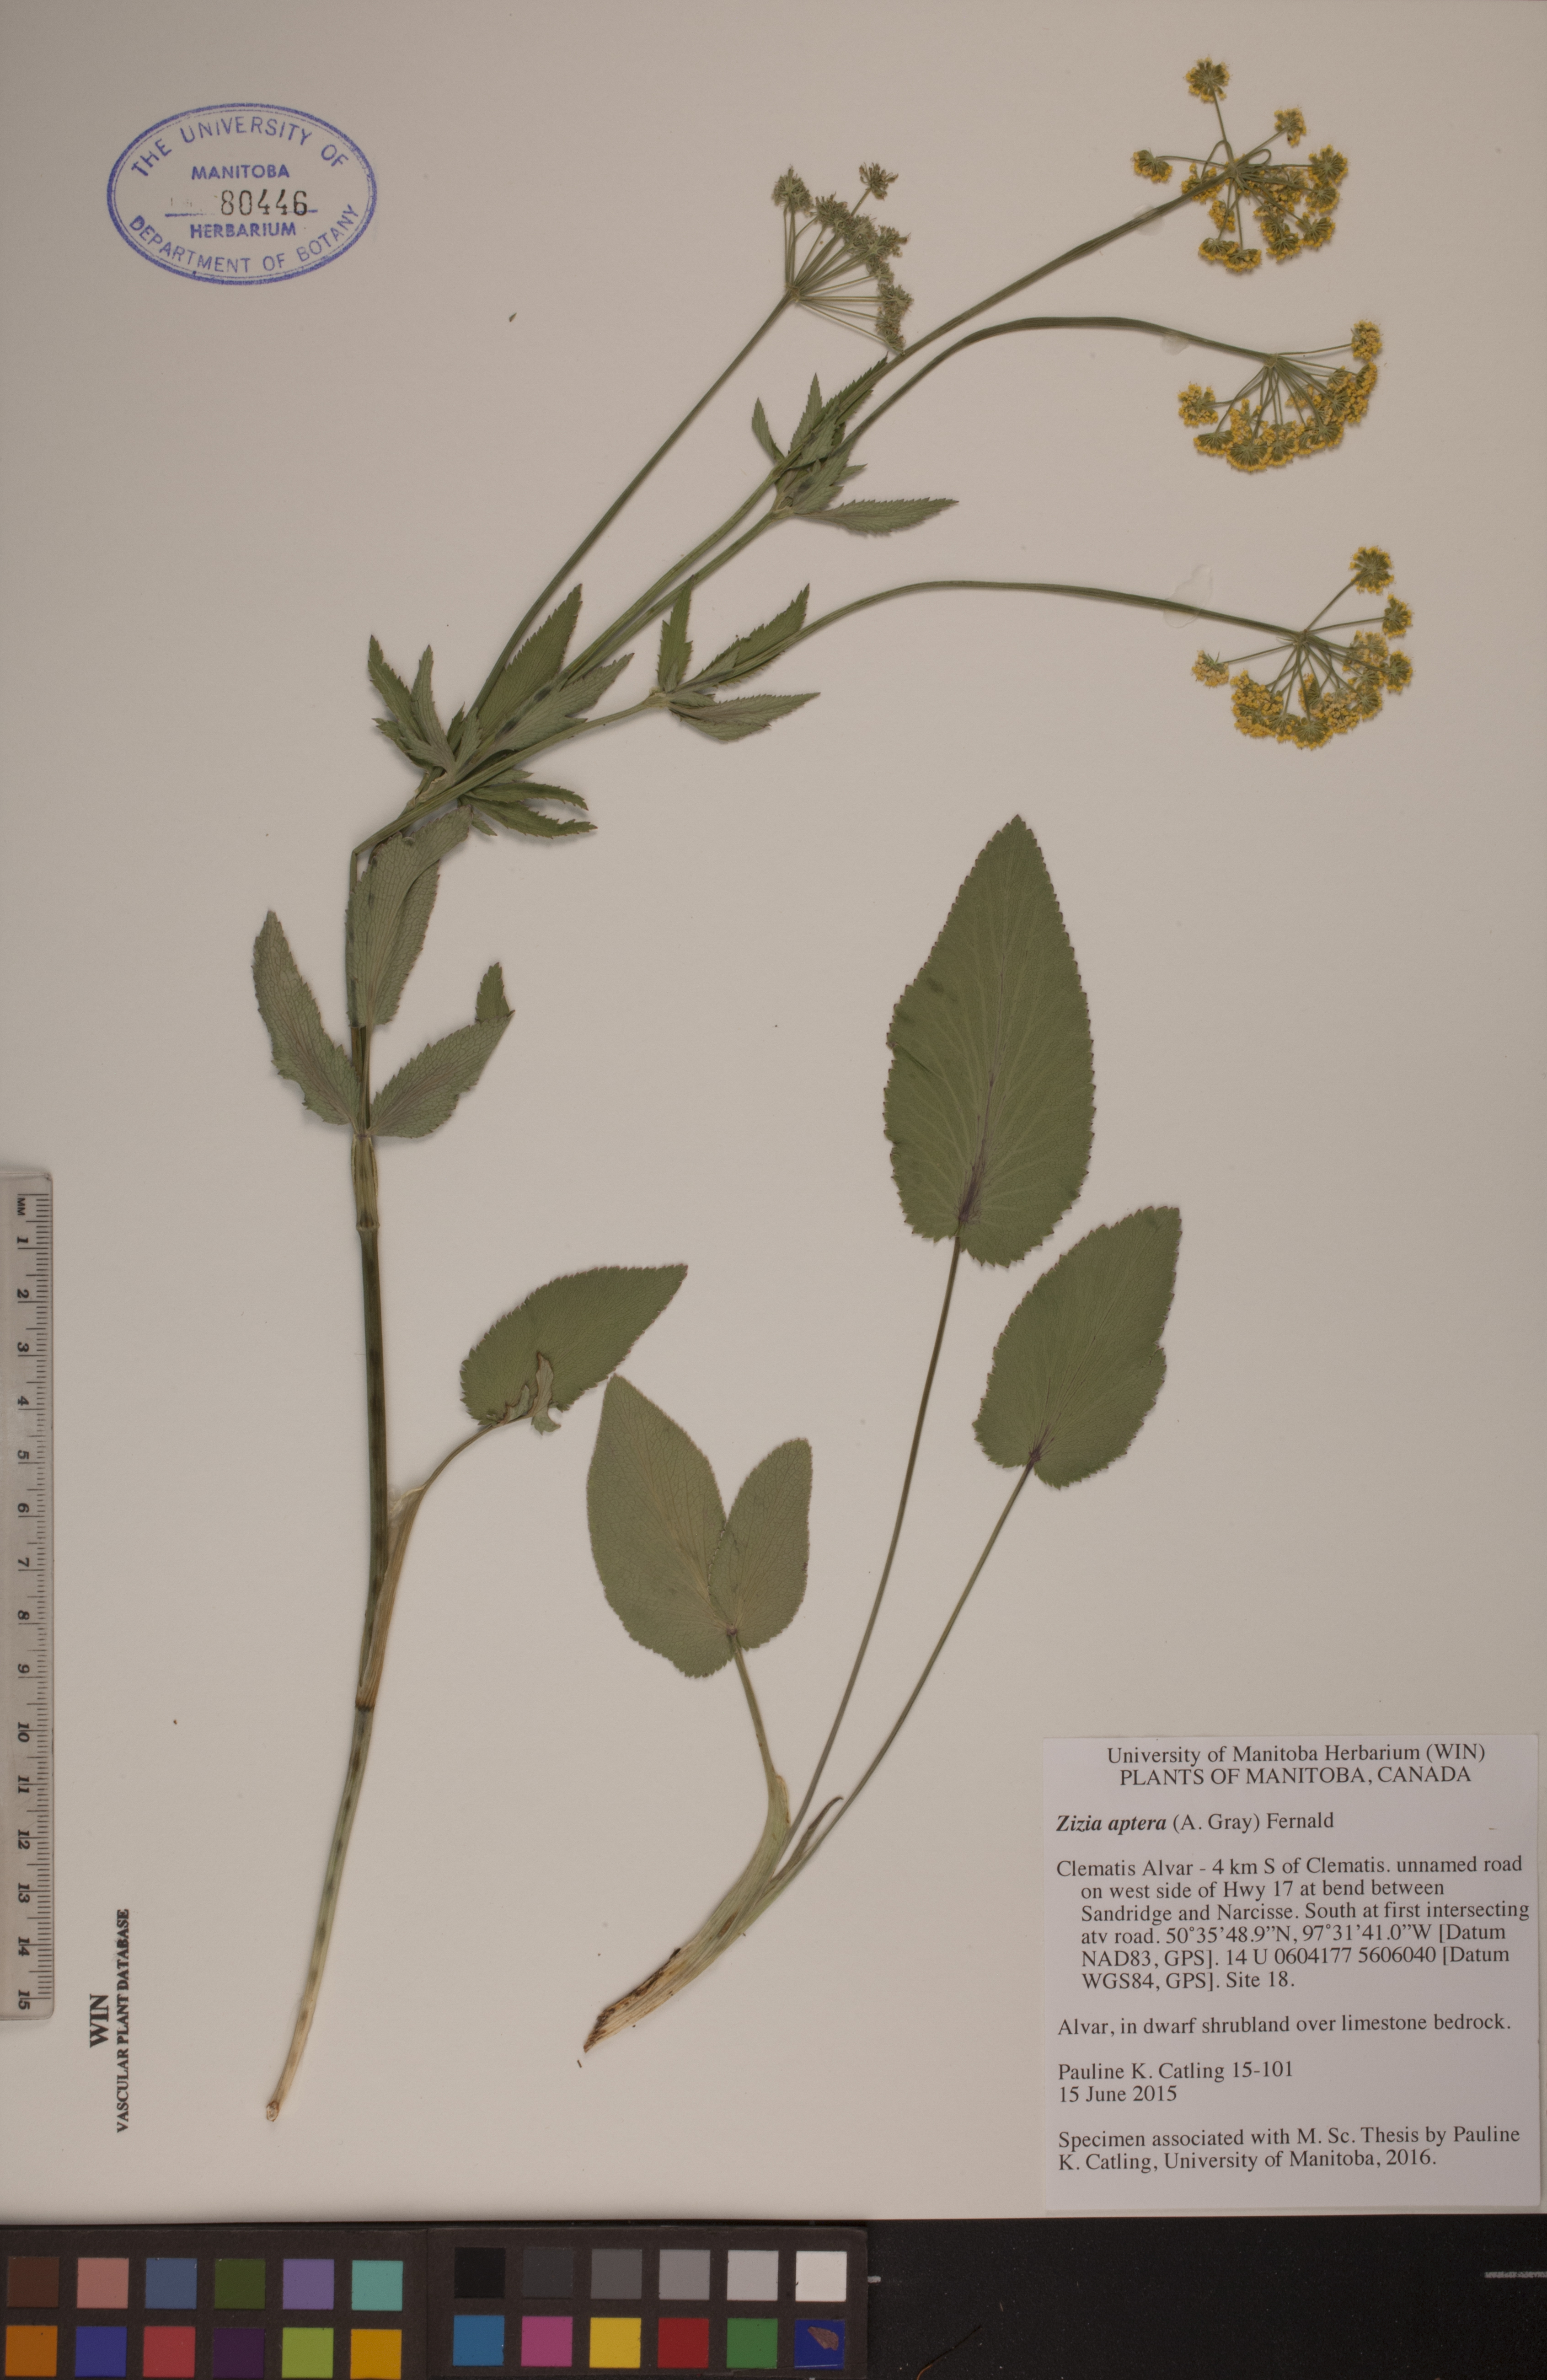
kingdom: Plantae
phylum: Tracheophyta
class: Magnoliopsida
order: Apiales
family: Apiaceae
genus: Zizia
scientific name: Zizia aptera
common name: Heart-leaved alexanders
